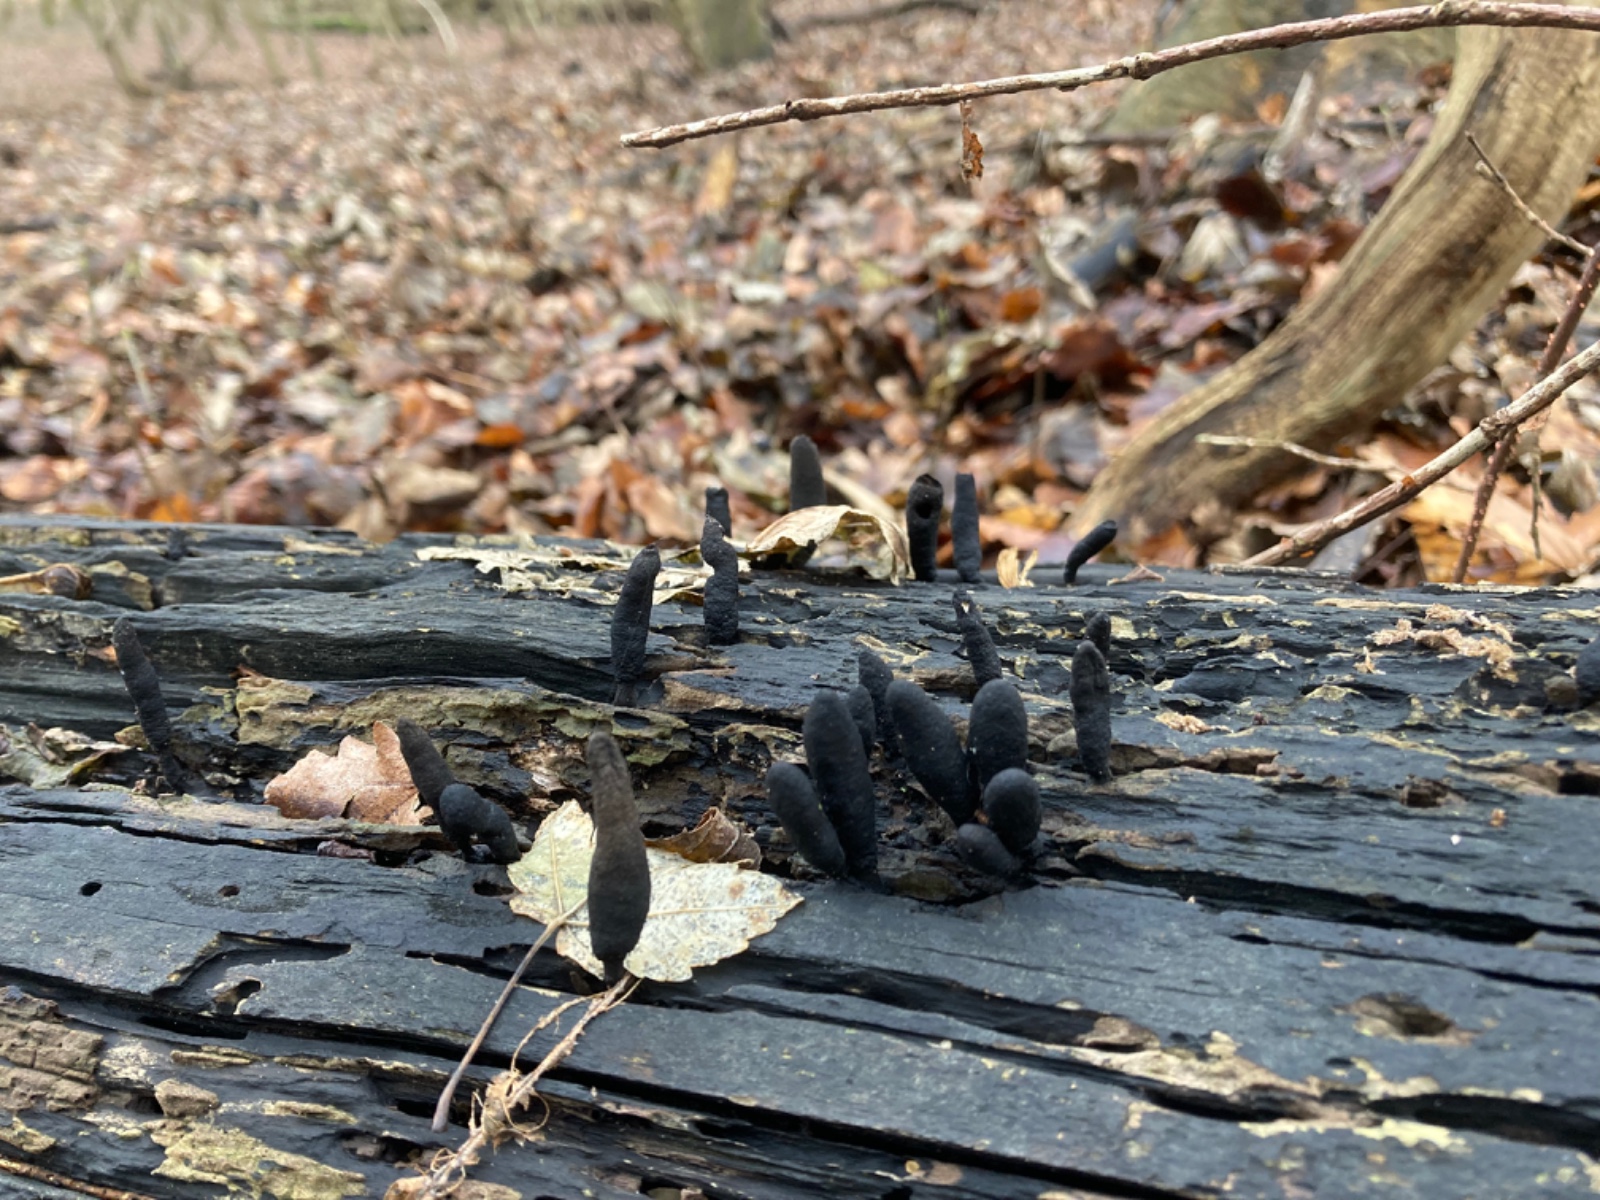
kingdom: Fungi
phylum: Ascomycota
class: Sordariomycetes
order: Xylariales
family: Xylariaceae
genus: Xylaria
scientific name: Xylaria longipes
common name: slank stødsvamp
